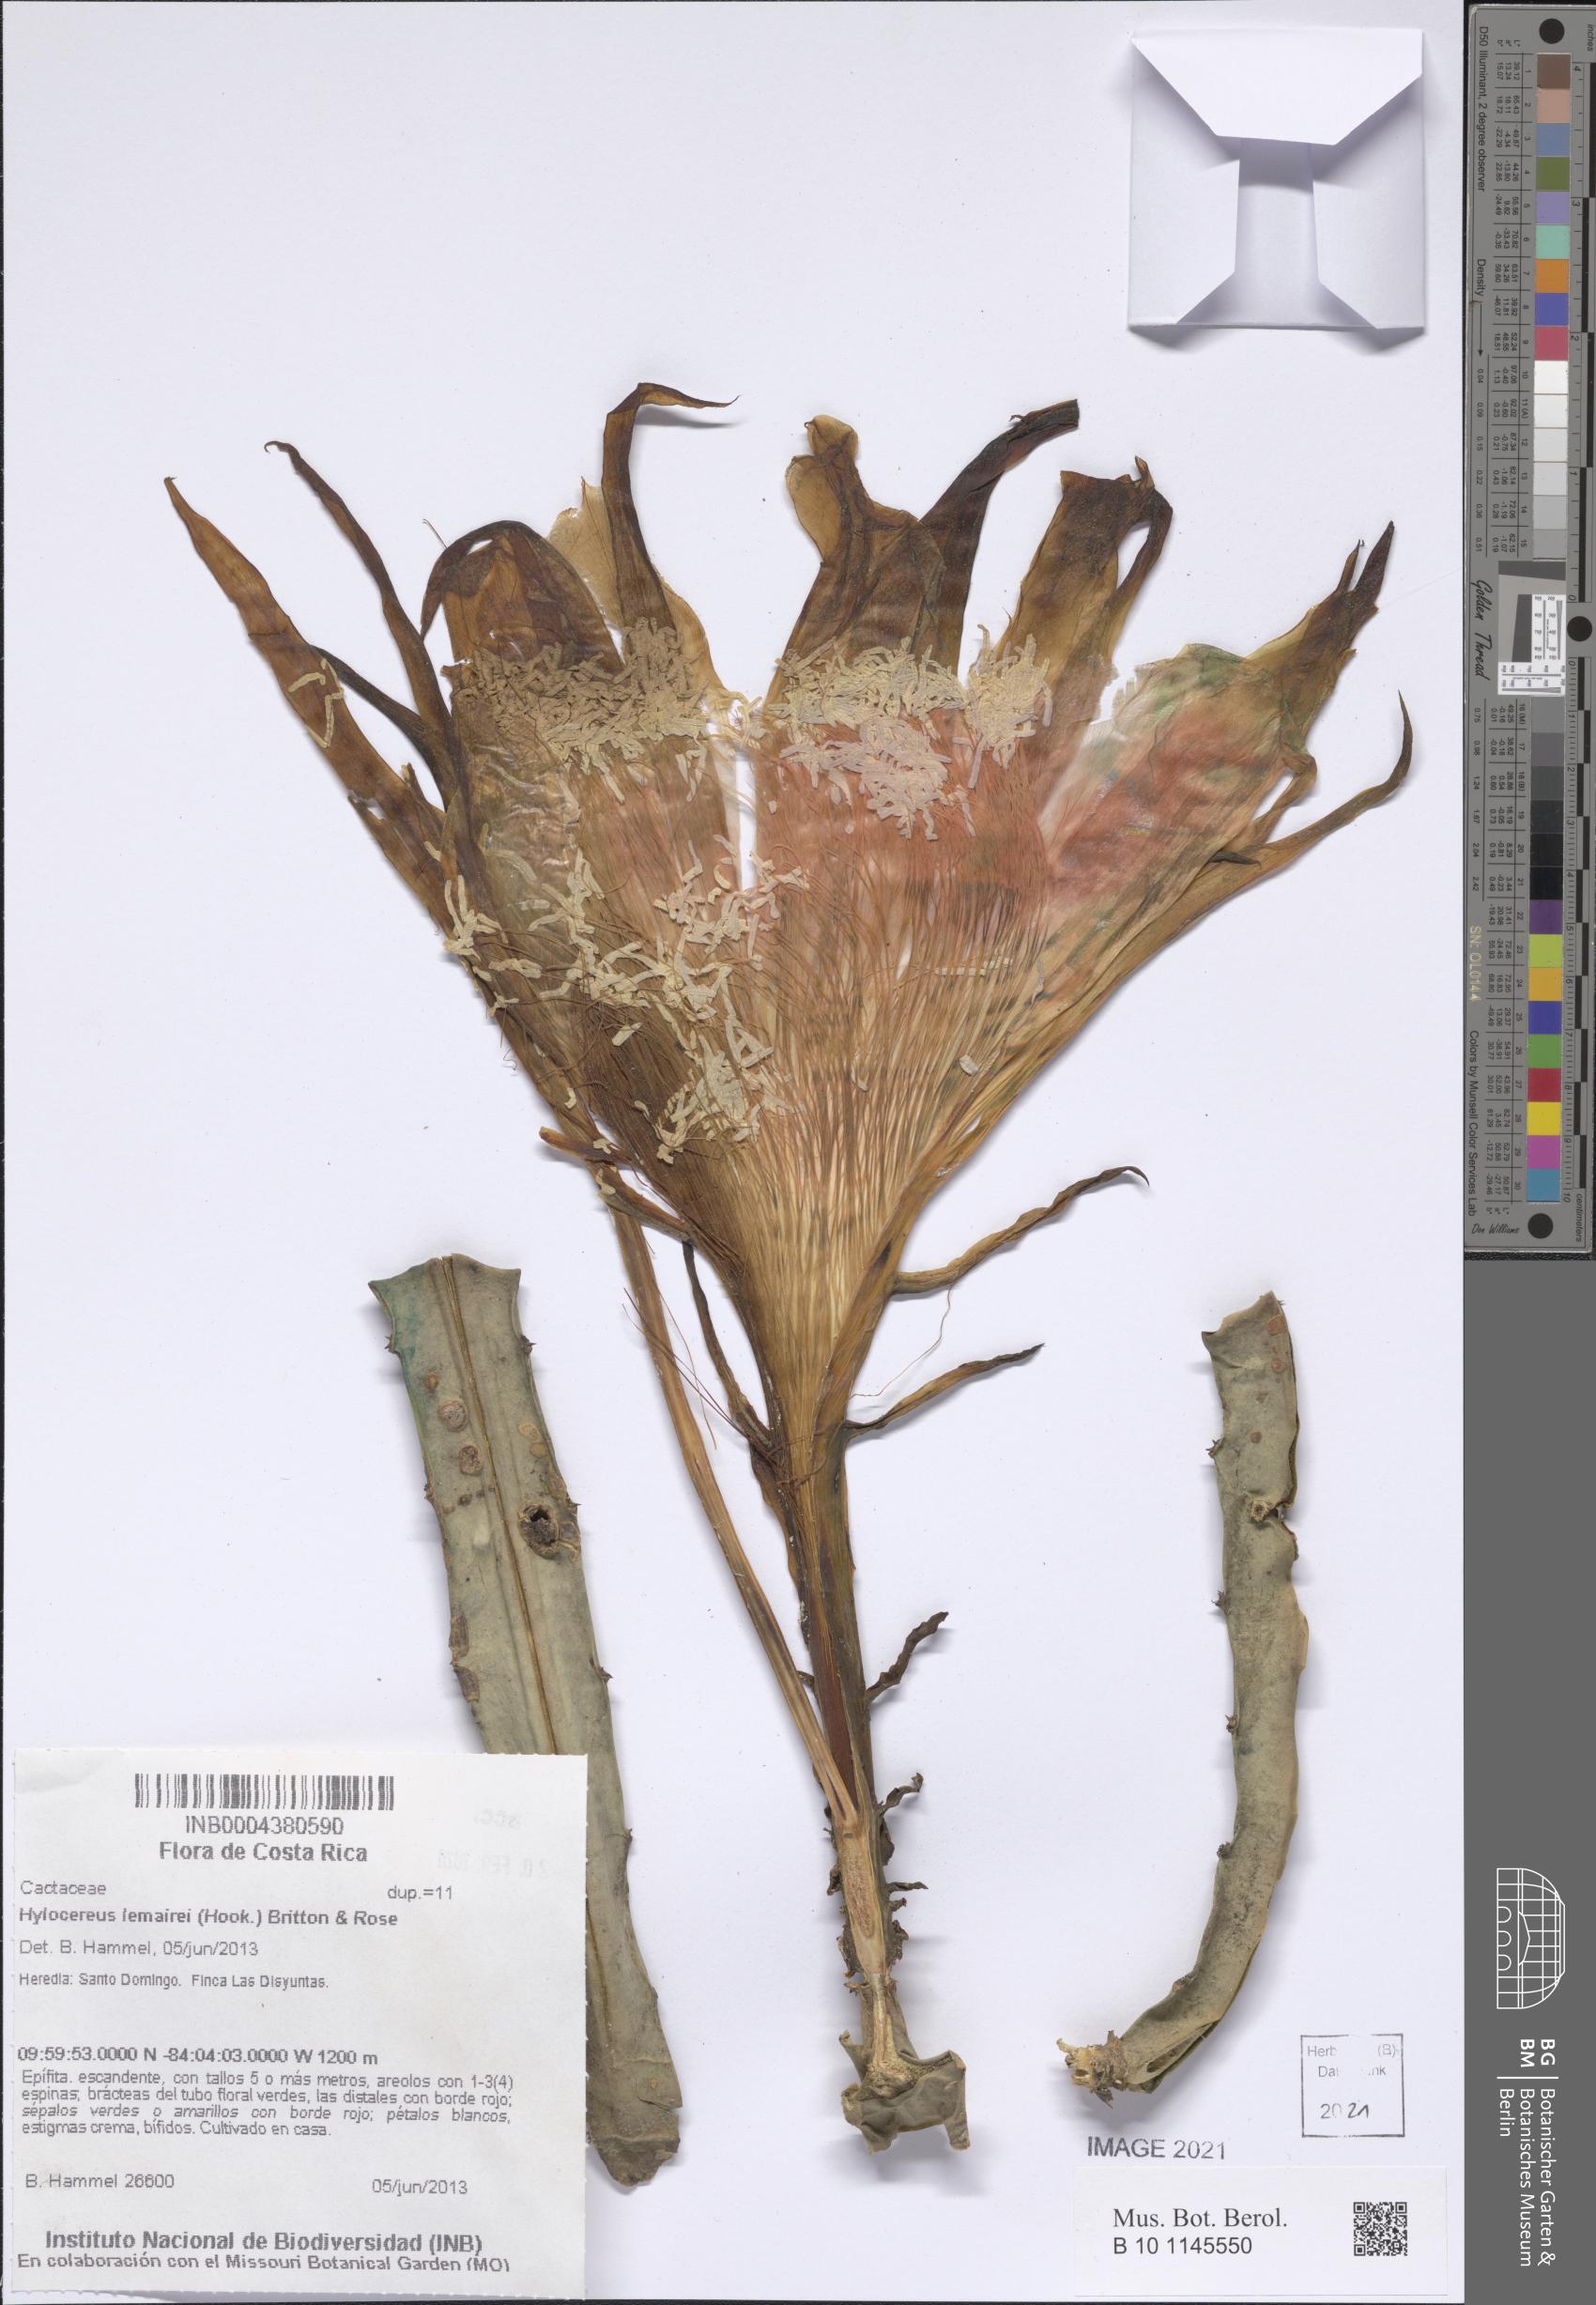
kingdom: Plantae
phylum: Tracheophyta
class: Magnoliopsida
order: Caryophyllales
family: Cactaceae
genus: Selenicereus
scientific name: Selenicereus monacanthus
